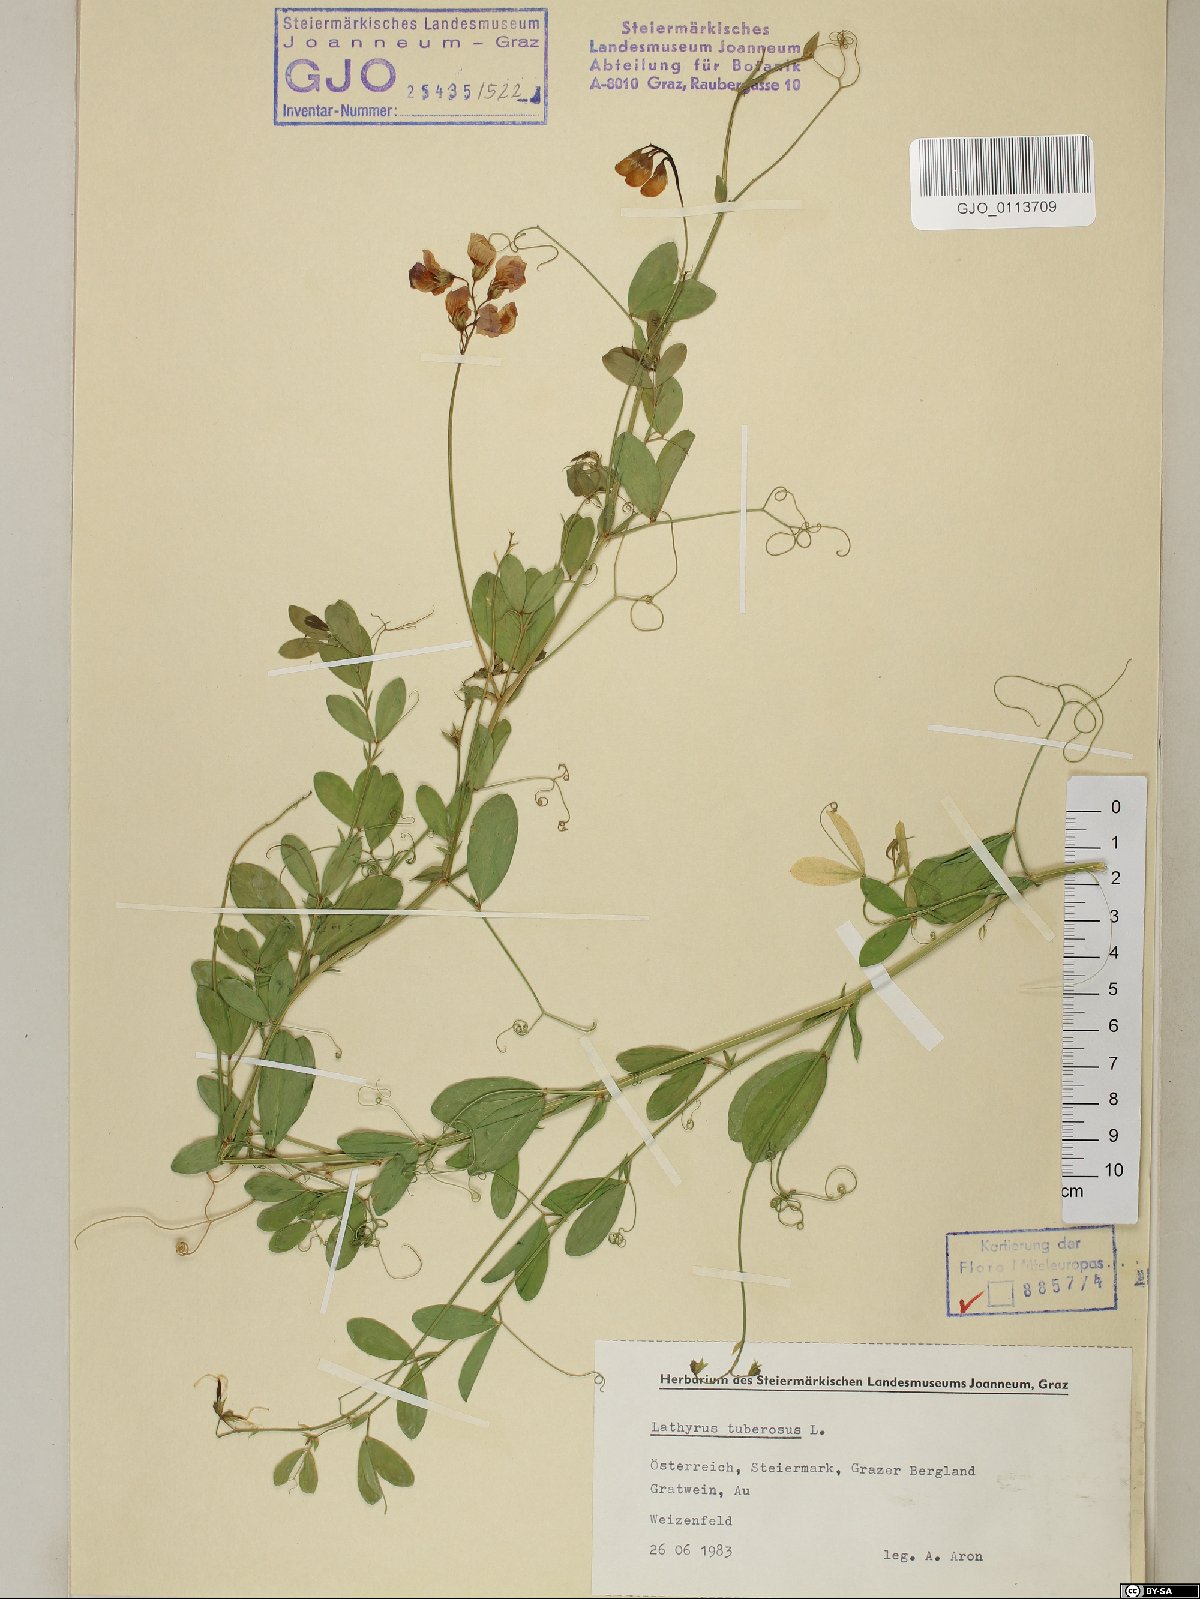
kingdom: Plantae
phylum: Tracheophyta
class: Magnoliopsida
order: Fabales
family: Fabaceae
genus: Lathyrus
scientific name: Lathyrus tuberosus
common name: Tuberous pea
